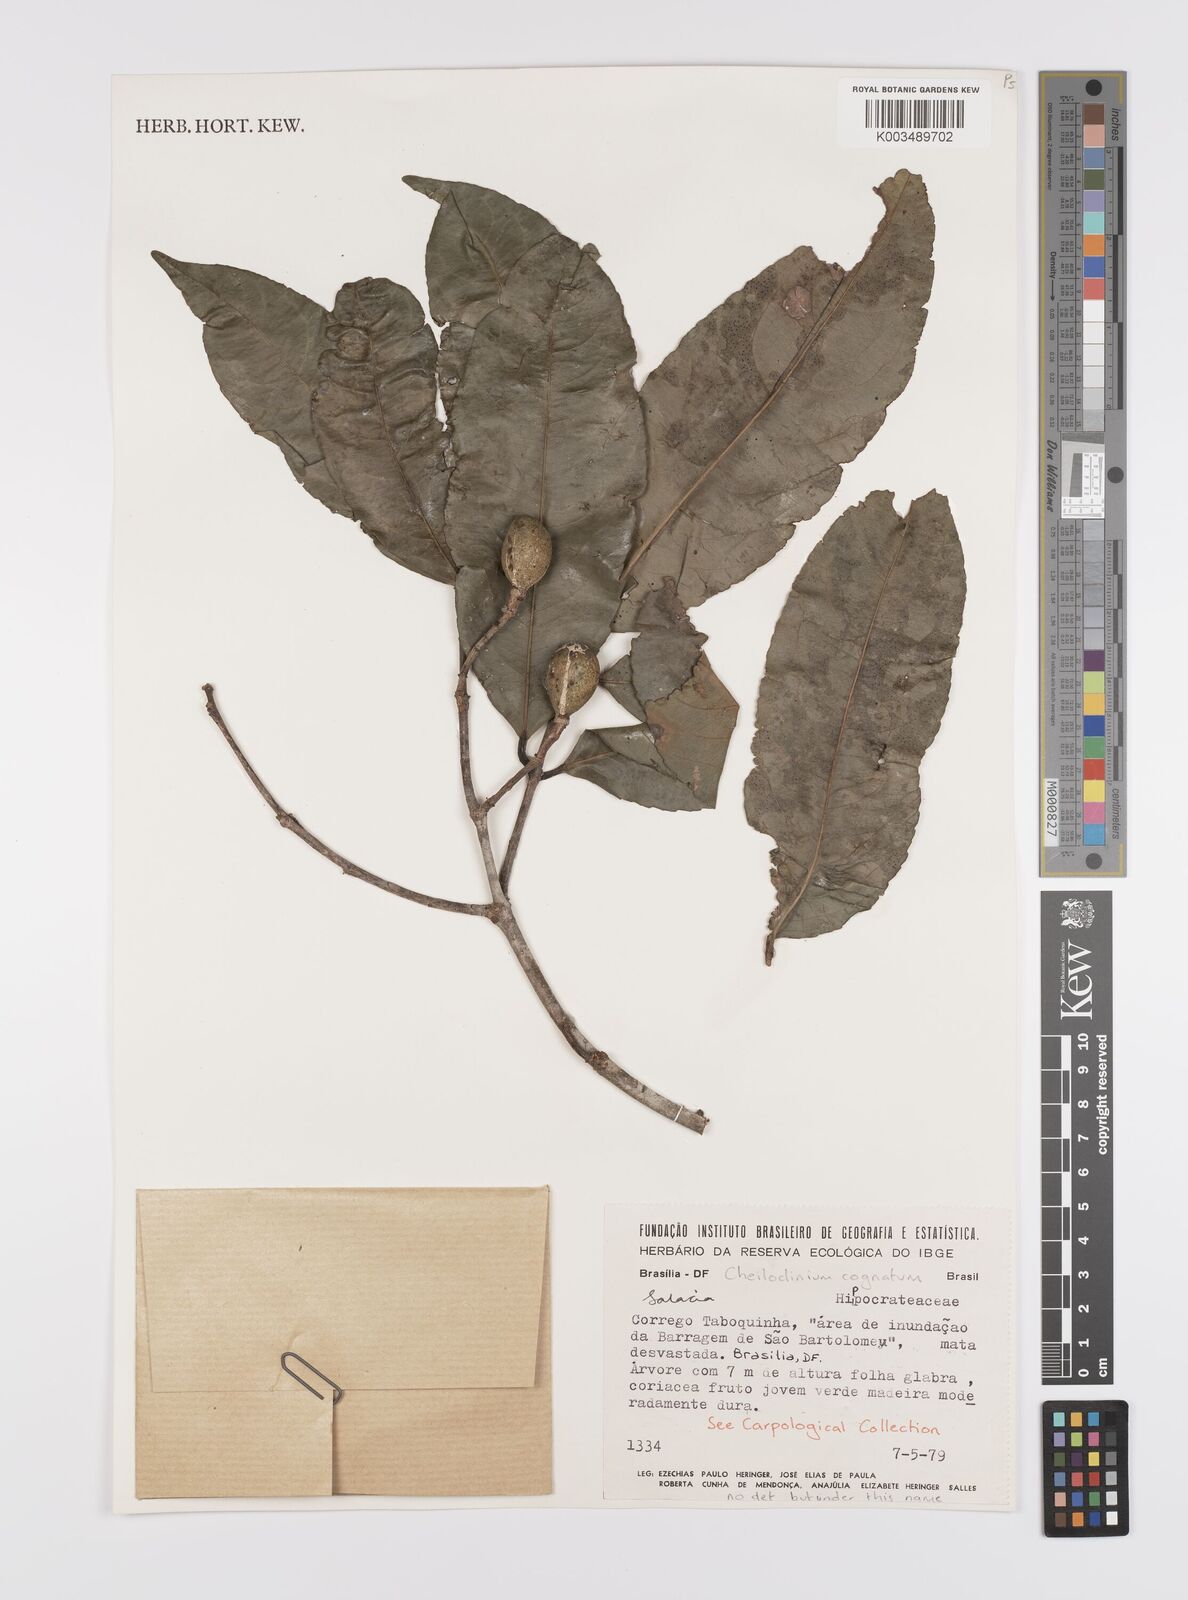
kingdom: Plantae
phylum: Tracheophyta
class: Magnoliopsida
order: Celastrales
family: Celastraceae
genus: Cheiloclinium
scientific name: Cheiloclinium cognatum
